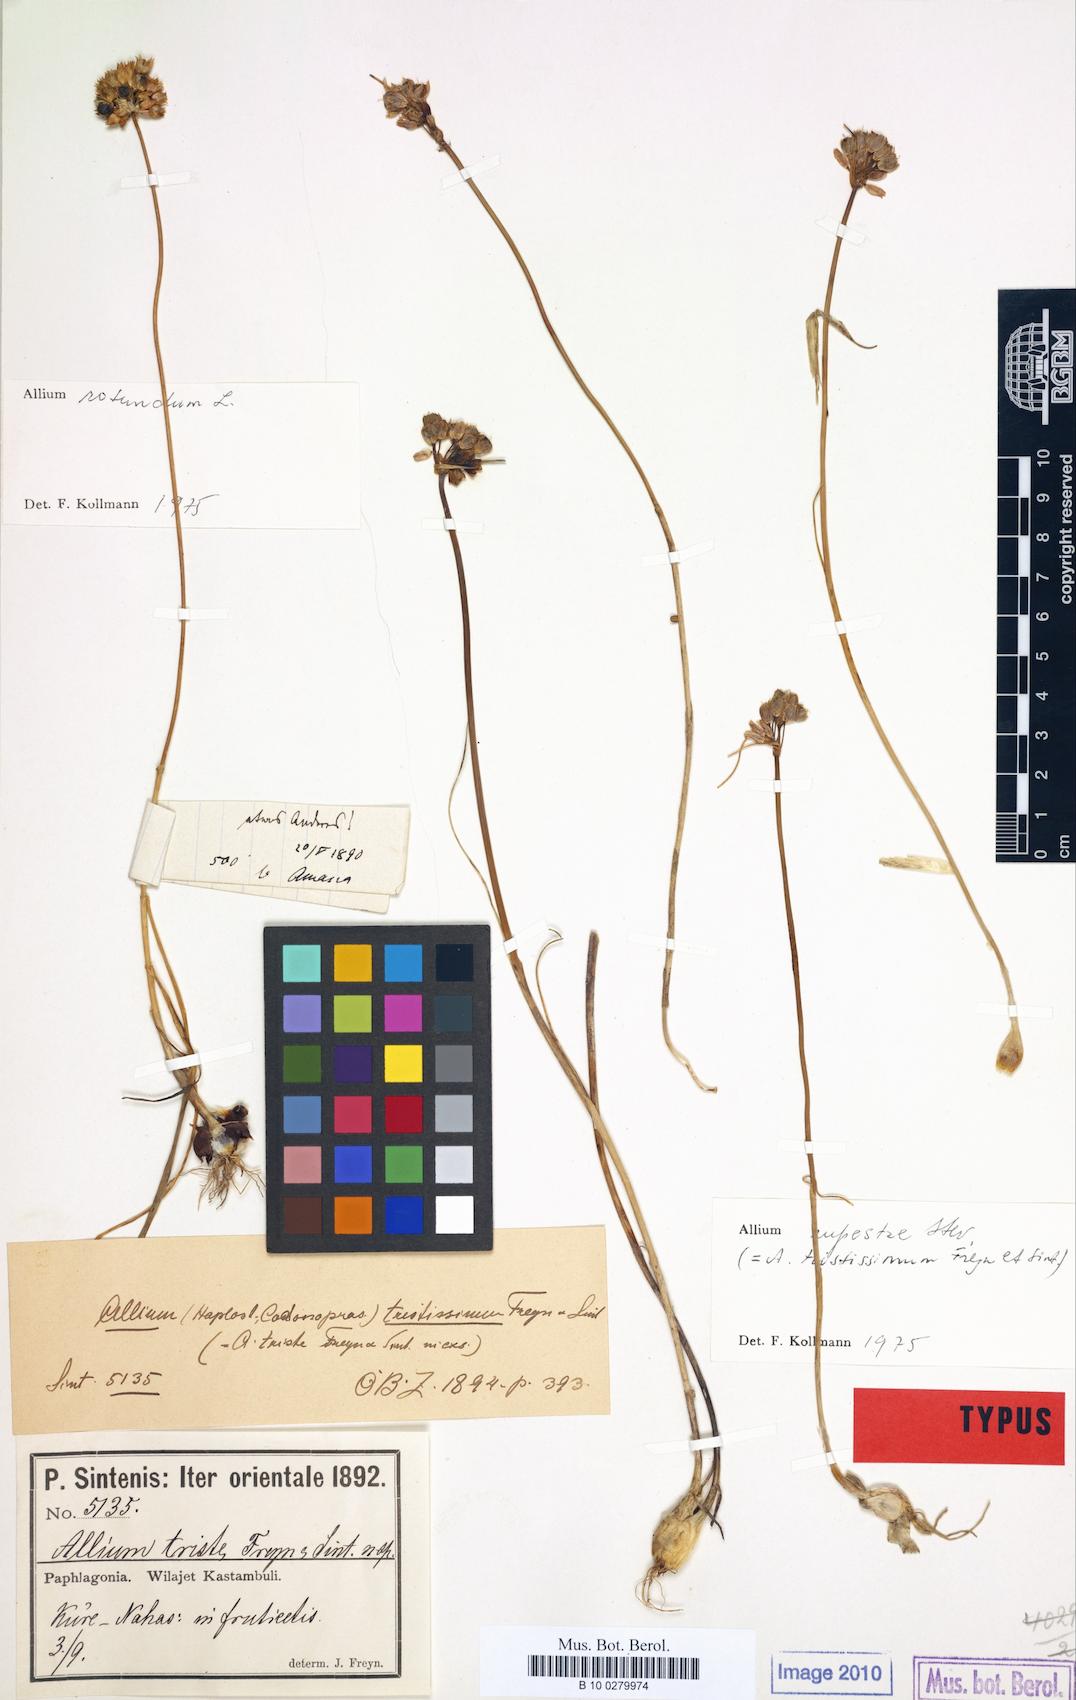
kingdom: Plantae
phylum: Tracheophyta
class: Liliopsida
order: Asparagales
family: Amaryllidaceae
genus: Allium
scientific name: Allium rupestre
